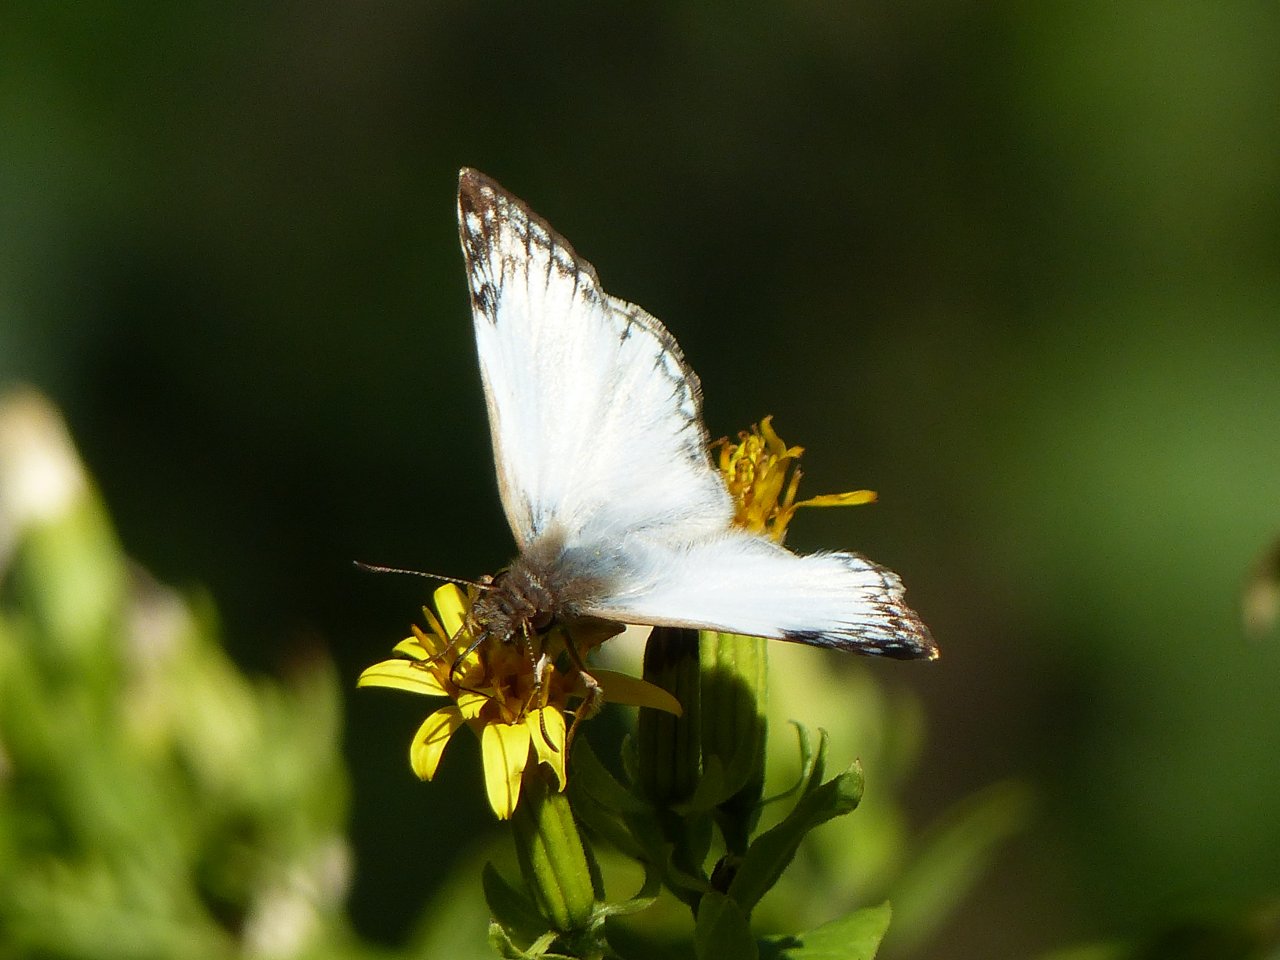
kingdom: Animalia
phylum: Arthropoda
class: Insecta
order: Lepidoptera
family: Hesperiidae
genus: Heliopetes
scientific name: Heliopetes laviana
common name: Laviana White-Skipper
